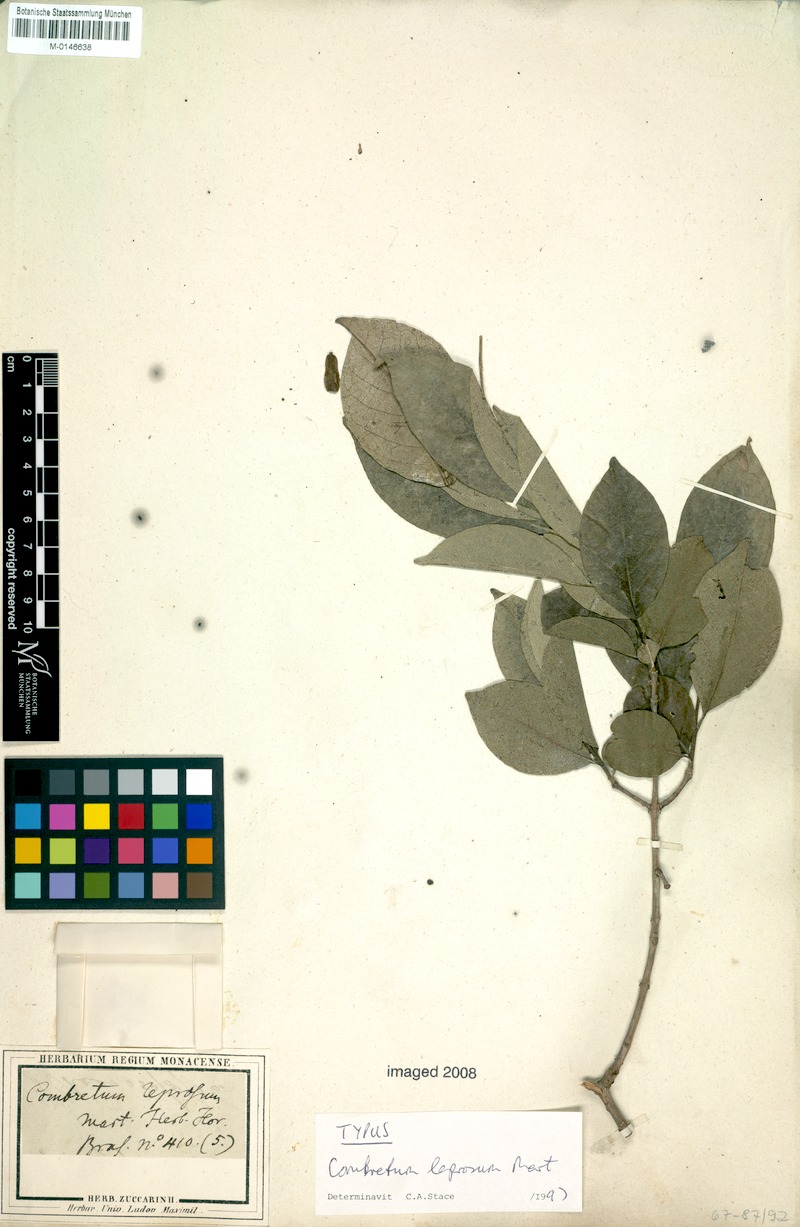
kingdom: Plantae
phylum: Tracheophyta
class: Magnoliopsida
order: Myrtales
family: Combretaceae
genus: Combretum
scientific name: Combretum leprosum
